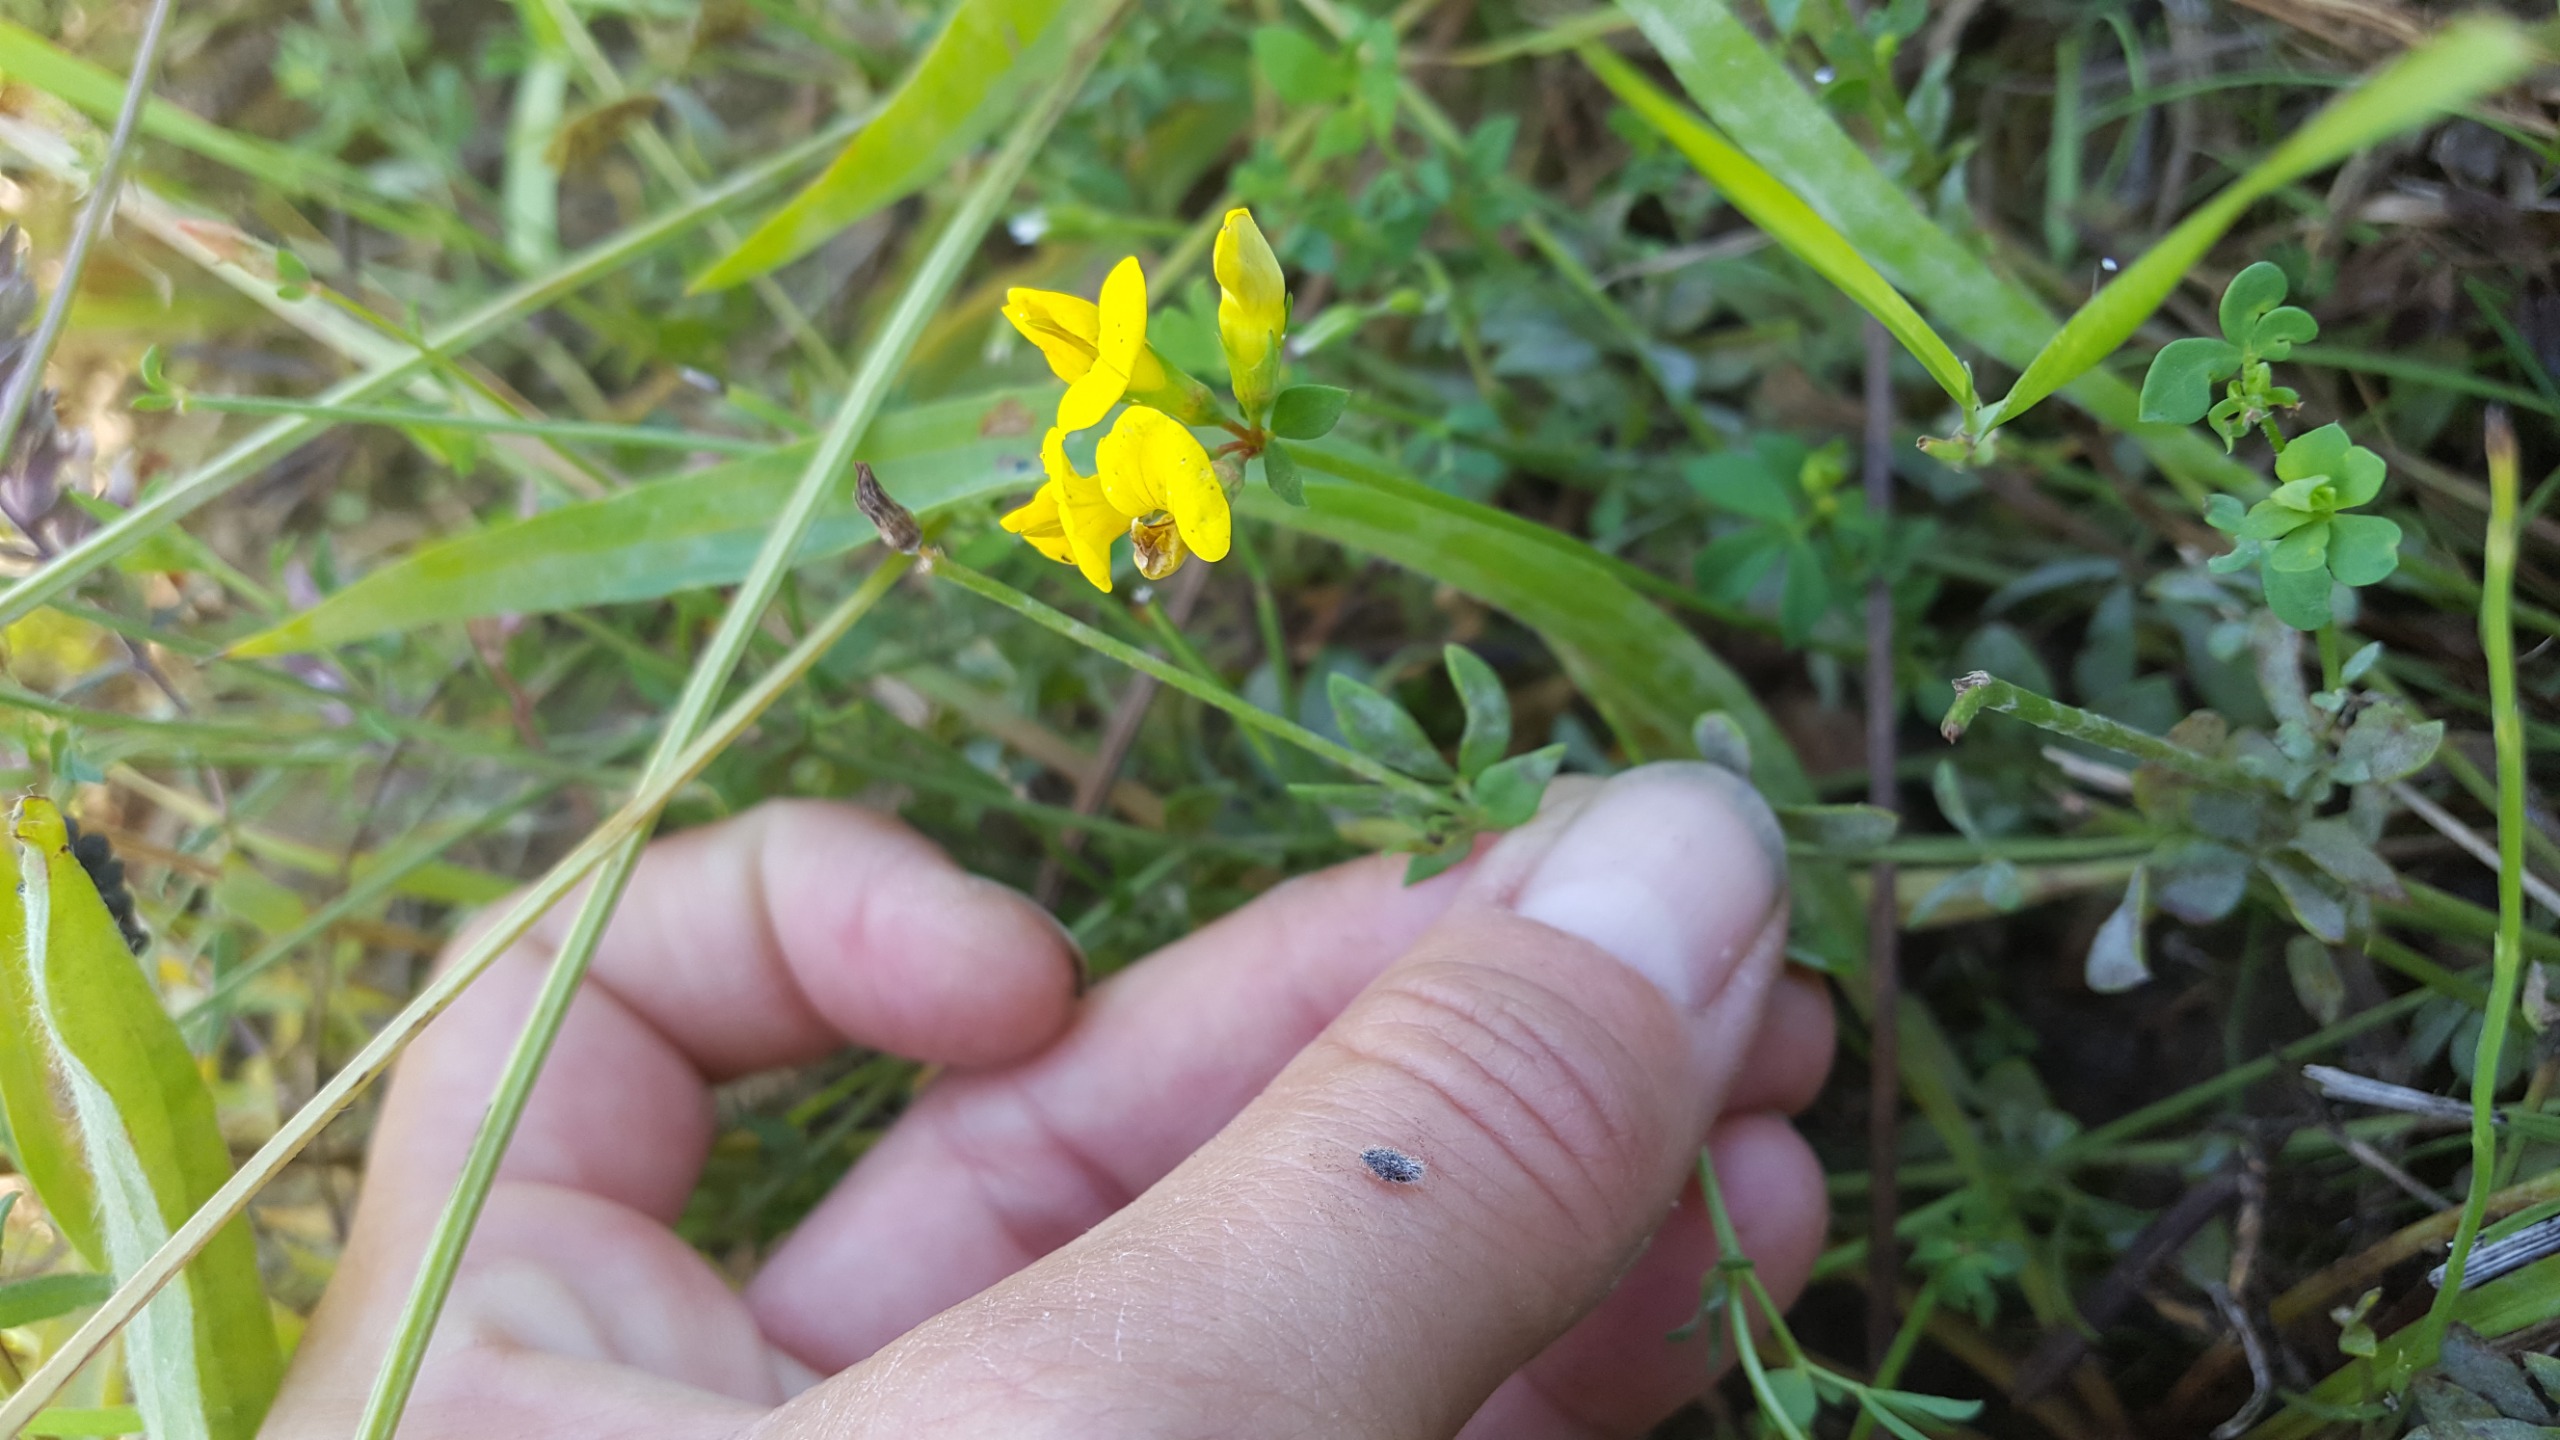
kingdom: Plantae
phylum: Tracheophyta
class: Magnoliopsida
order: Fabales
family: Fabaceae
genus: Lotus
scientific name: Lotus corniculatus
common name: Almindelig kællingetand
